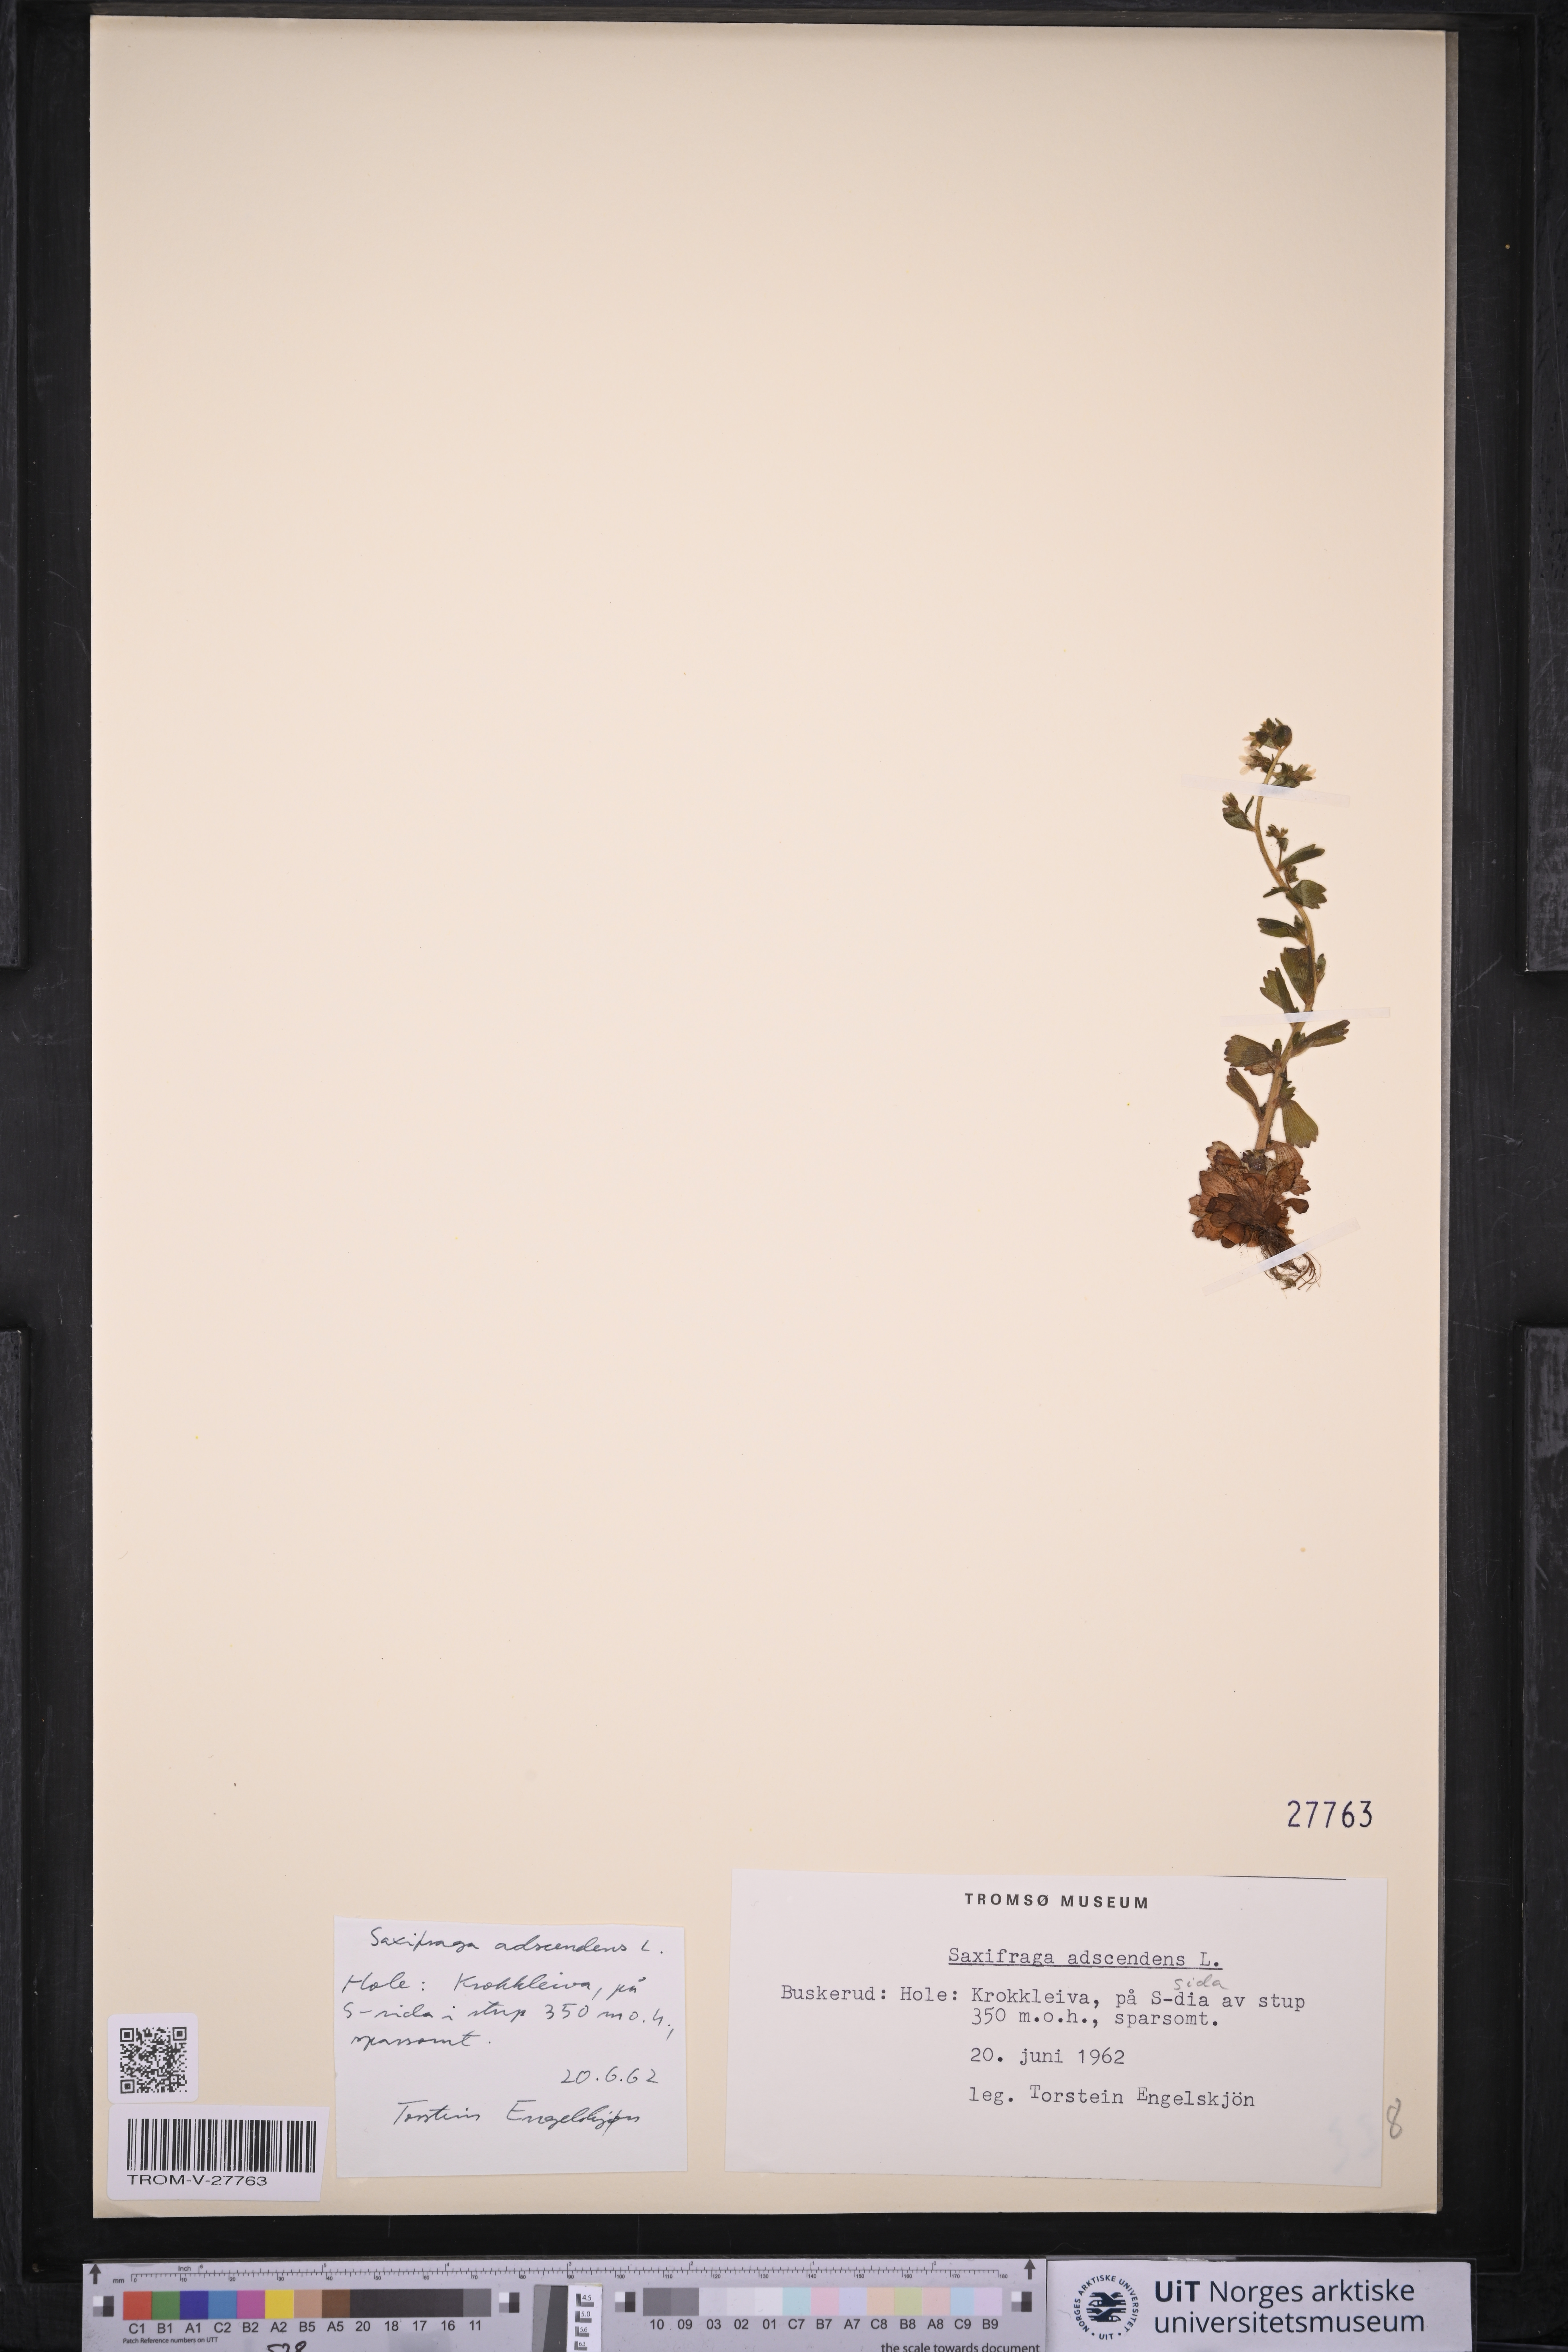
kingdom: Plantae
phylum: Tracheophyta
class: Magnoliopsida
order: Saxifragales
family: Saxifragaceae
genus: Saxifraga
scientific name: Saxifraga adscendens
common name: Ascending saxifrage
